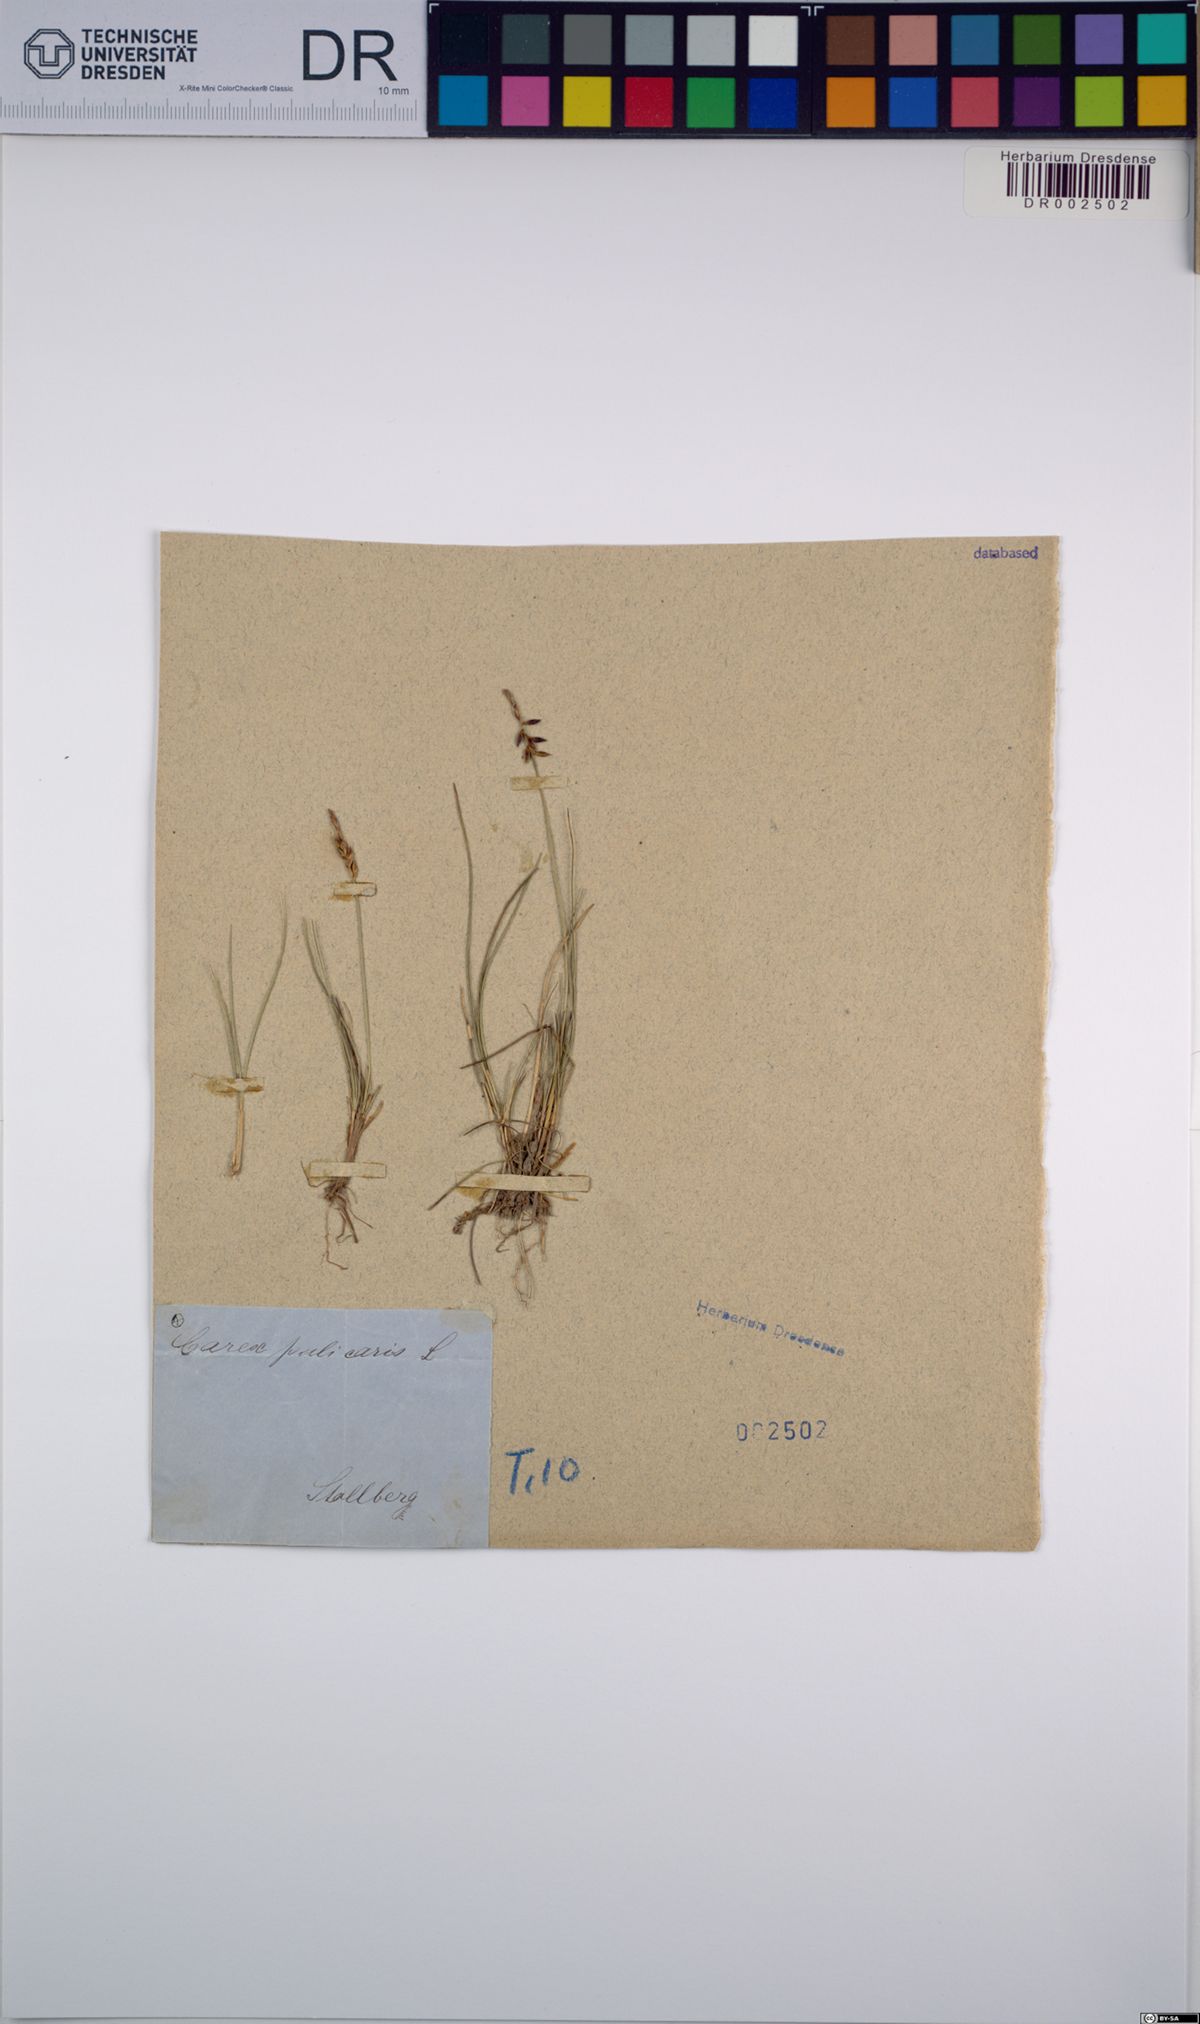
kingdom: Plantae
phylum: Tracheophyta
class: Liliopsida
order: Poales
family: Cyperaceae
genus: Carex
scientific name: Carex pulicaris
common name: Flea sedge
